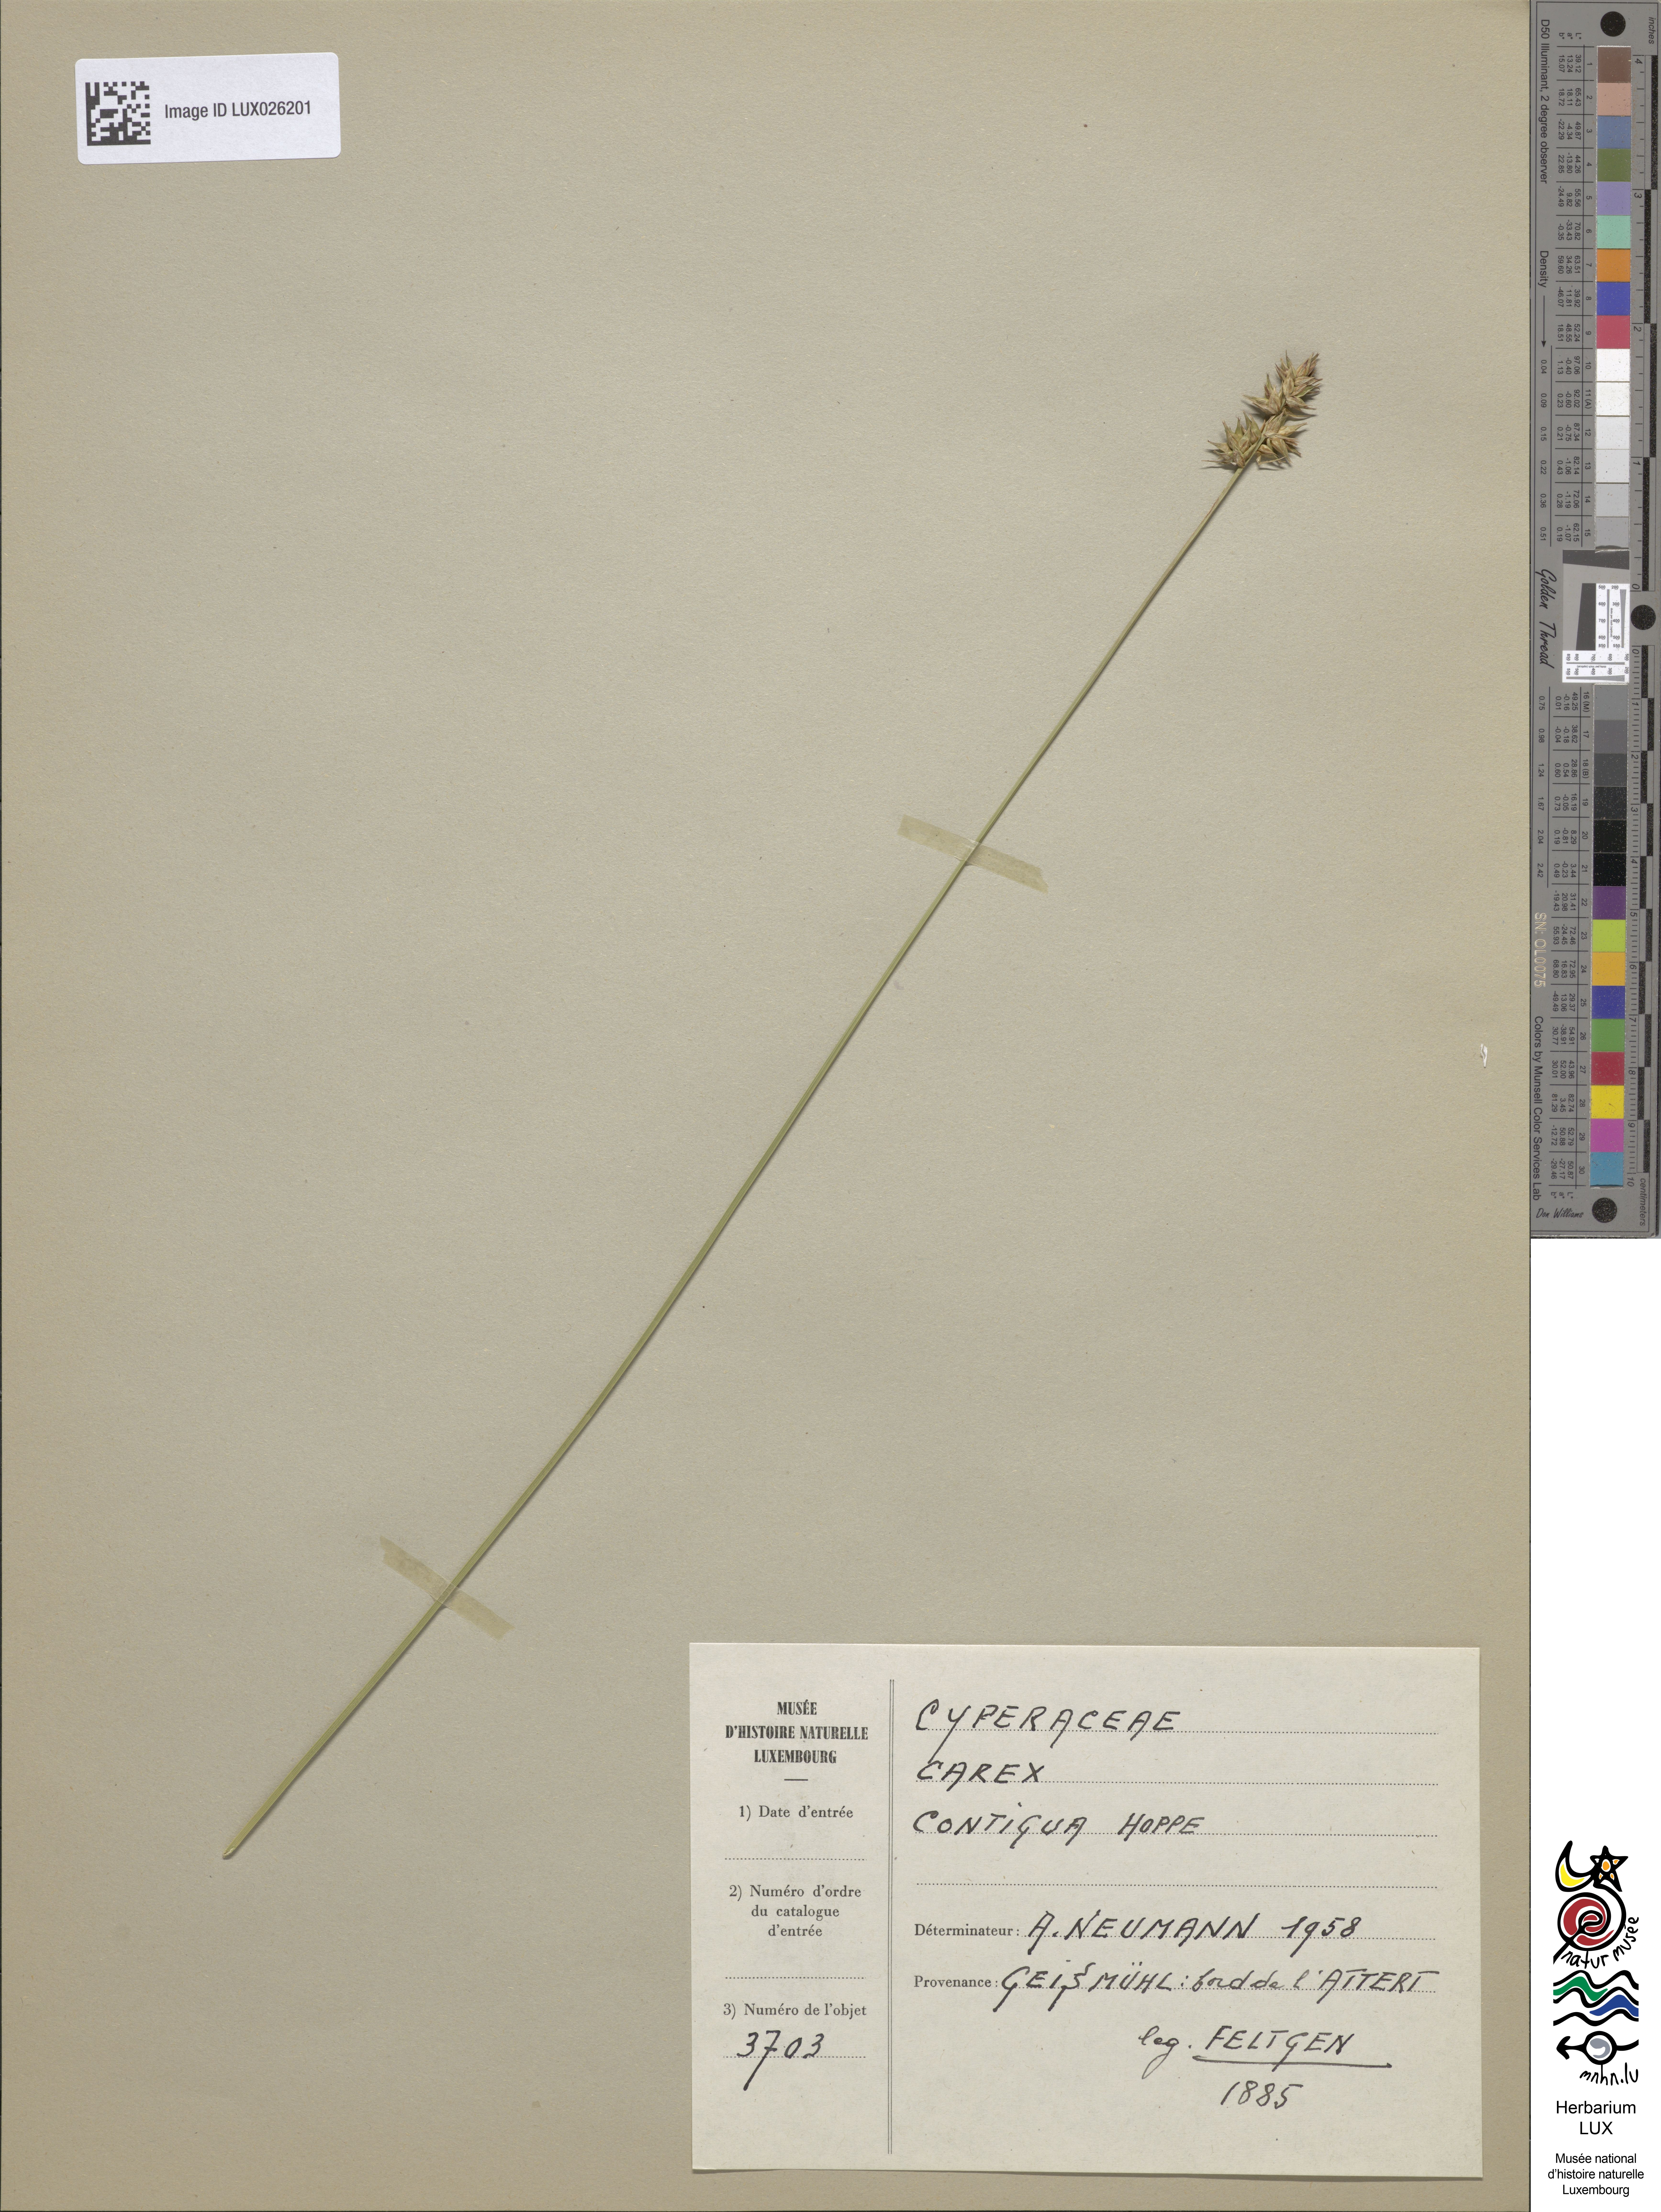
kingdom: Plantae
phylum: Tracheophyta
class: Liliopsida
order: Poales
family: Cyperaceae
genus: Carex
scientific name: Carex spicata
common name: Spiked sedge
